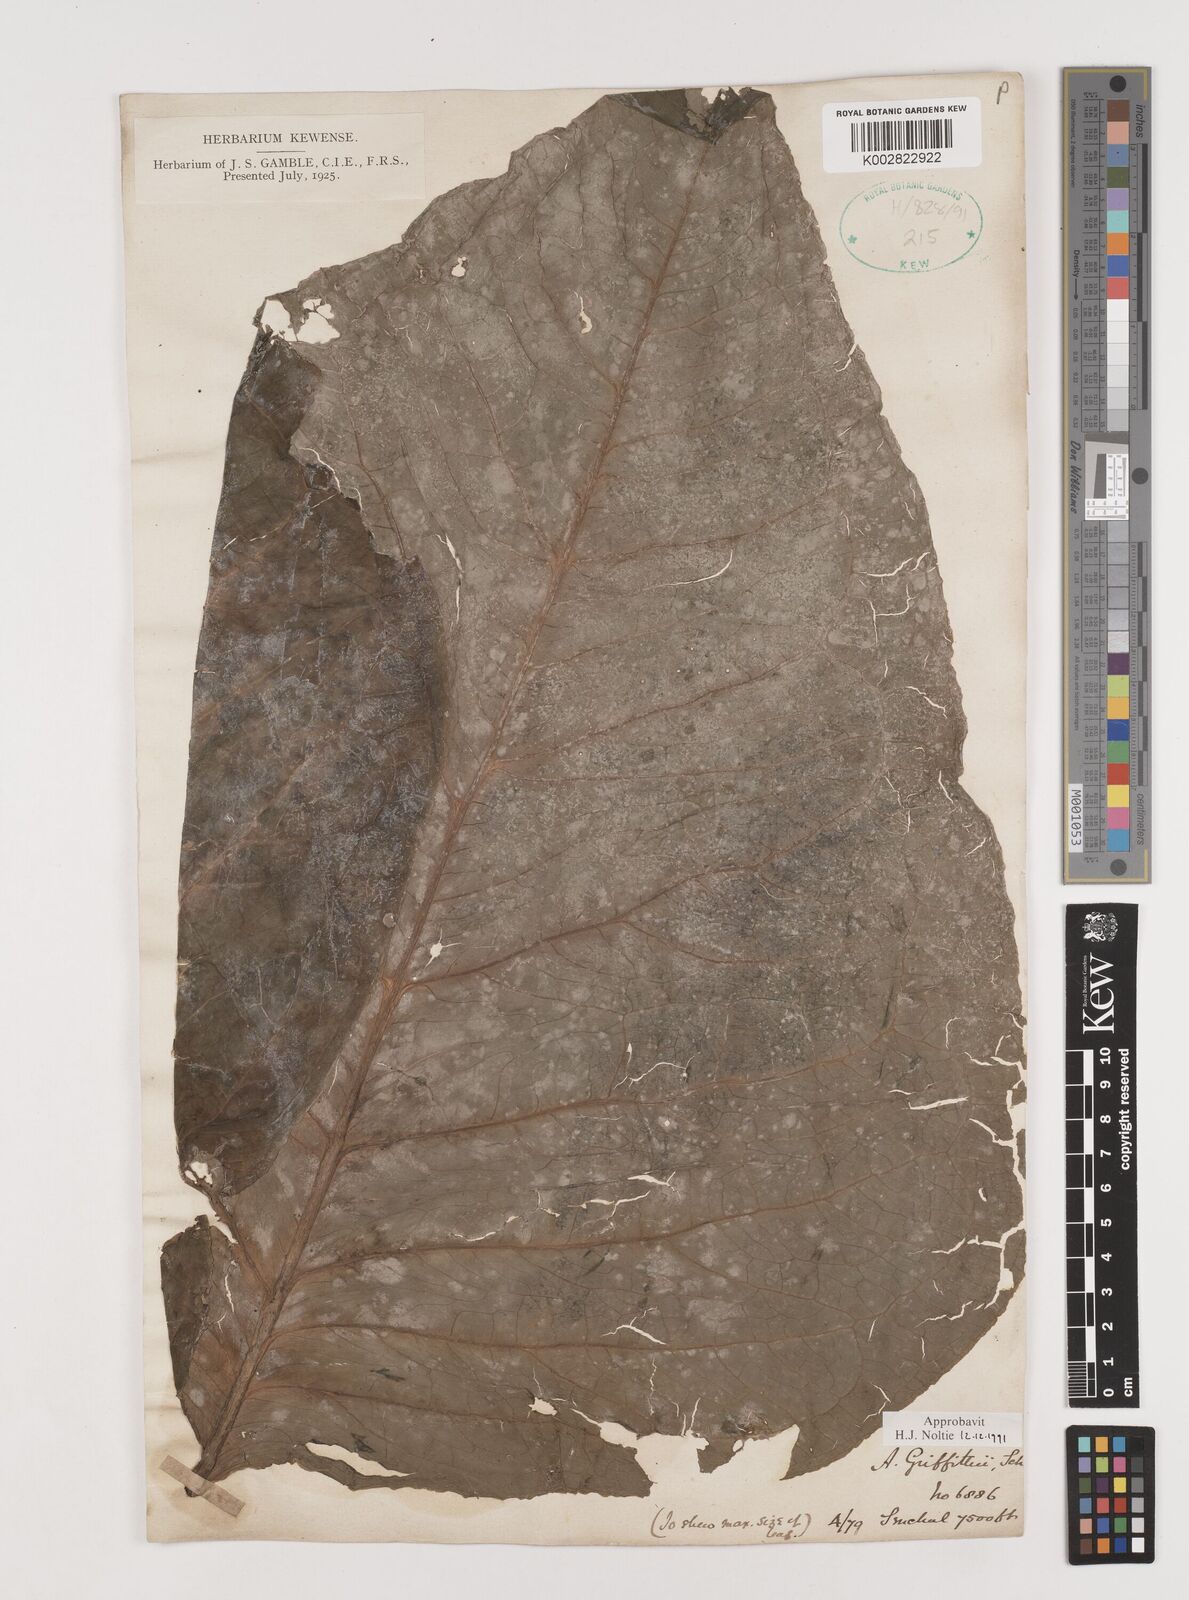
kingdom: Plantae
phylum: Tracheophyta
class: Liliopsida
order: Alismatales
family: Araceae
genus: Arisaema
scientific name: Arisaema griffithii
